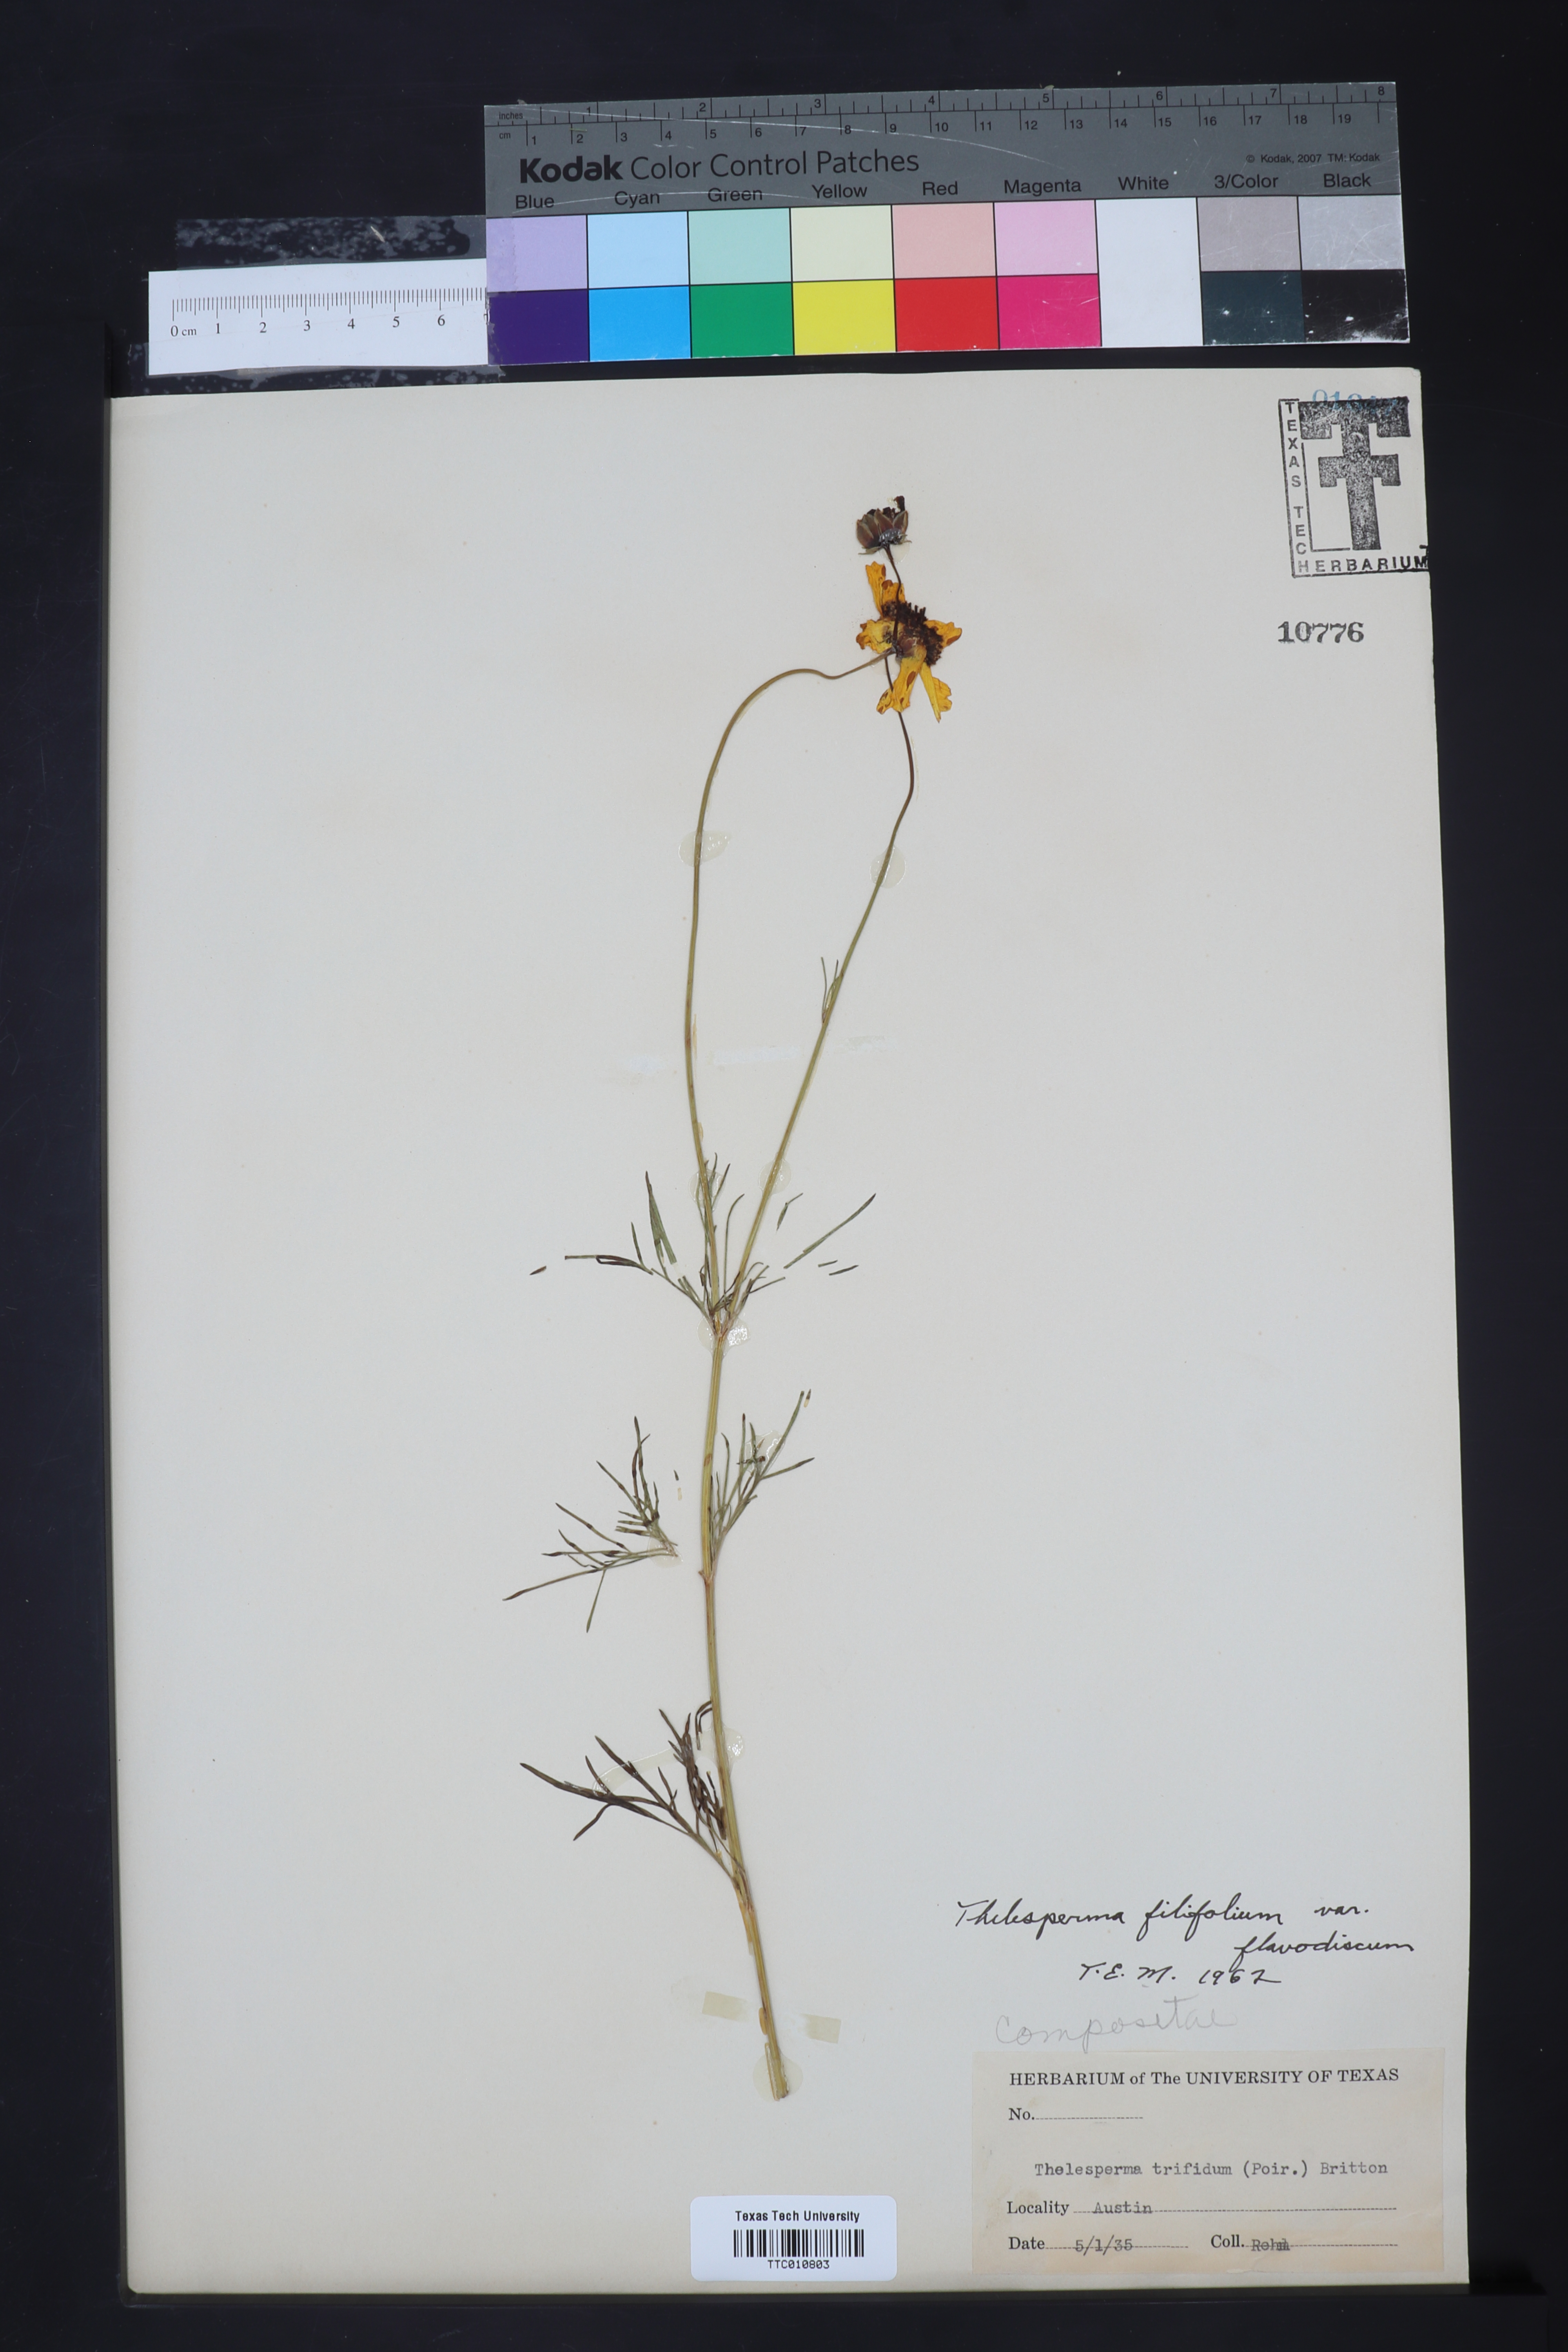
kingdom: Plantae
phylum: Tracheophyta
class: Magnoliopsida
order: Asterales
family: Asteraceae
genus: Thelesperma
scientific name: Thelesperma filifolium
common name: Stiff greenthread
